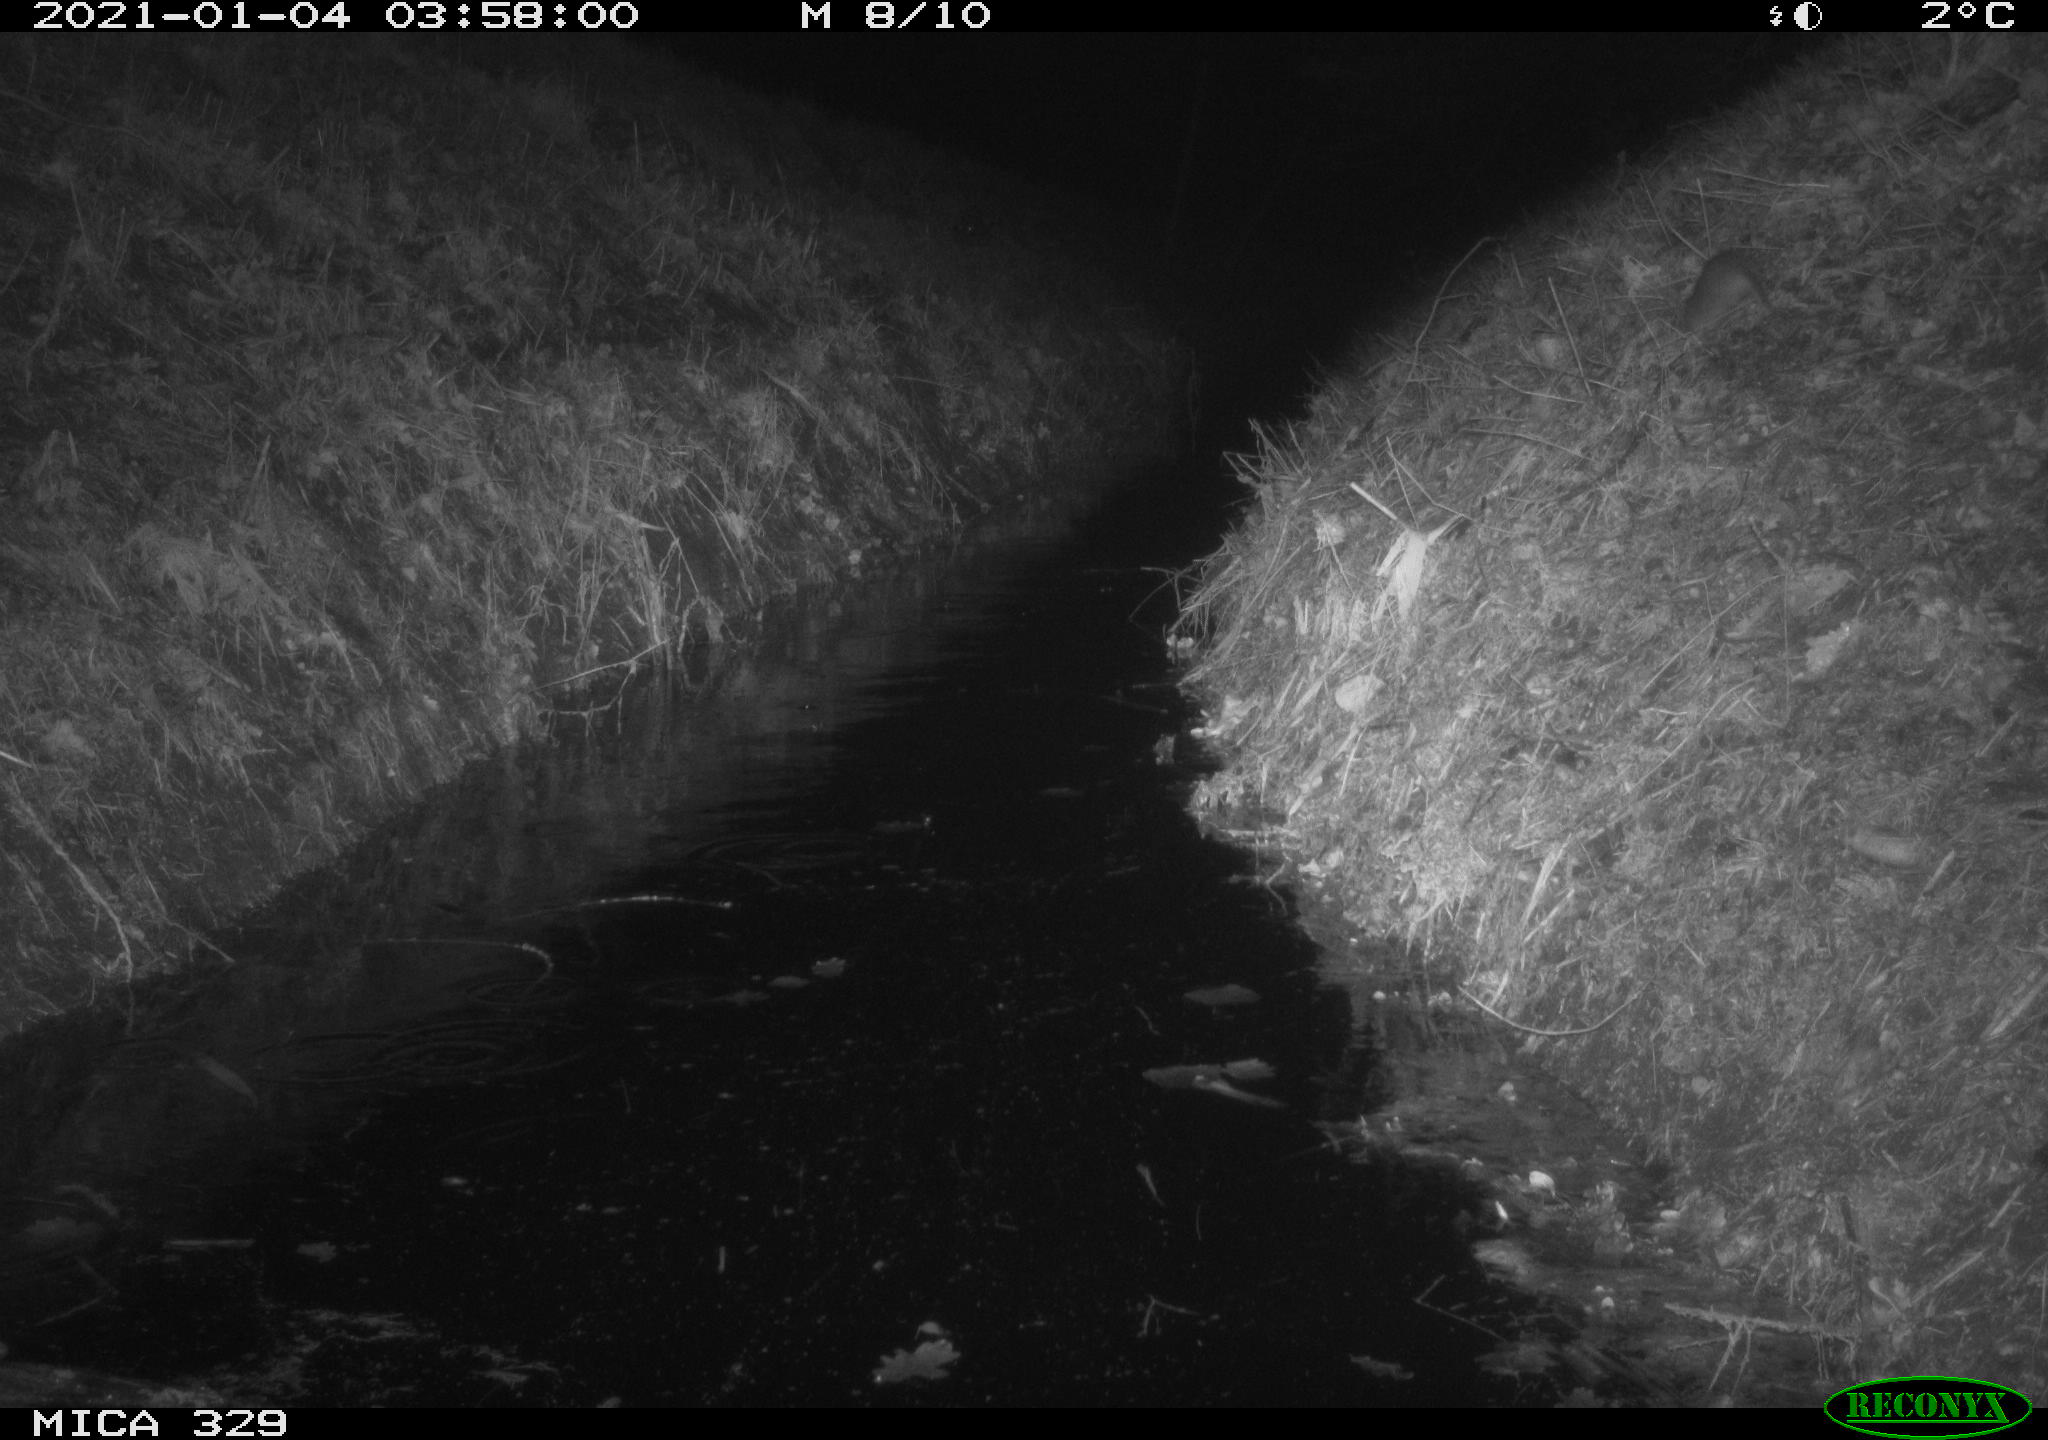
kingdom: Animalia
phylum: Chordata
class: Mammalia
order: Rodentia
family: Muridae
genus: Rattus
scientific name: Rattus norvegicus
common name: Brown rat
